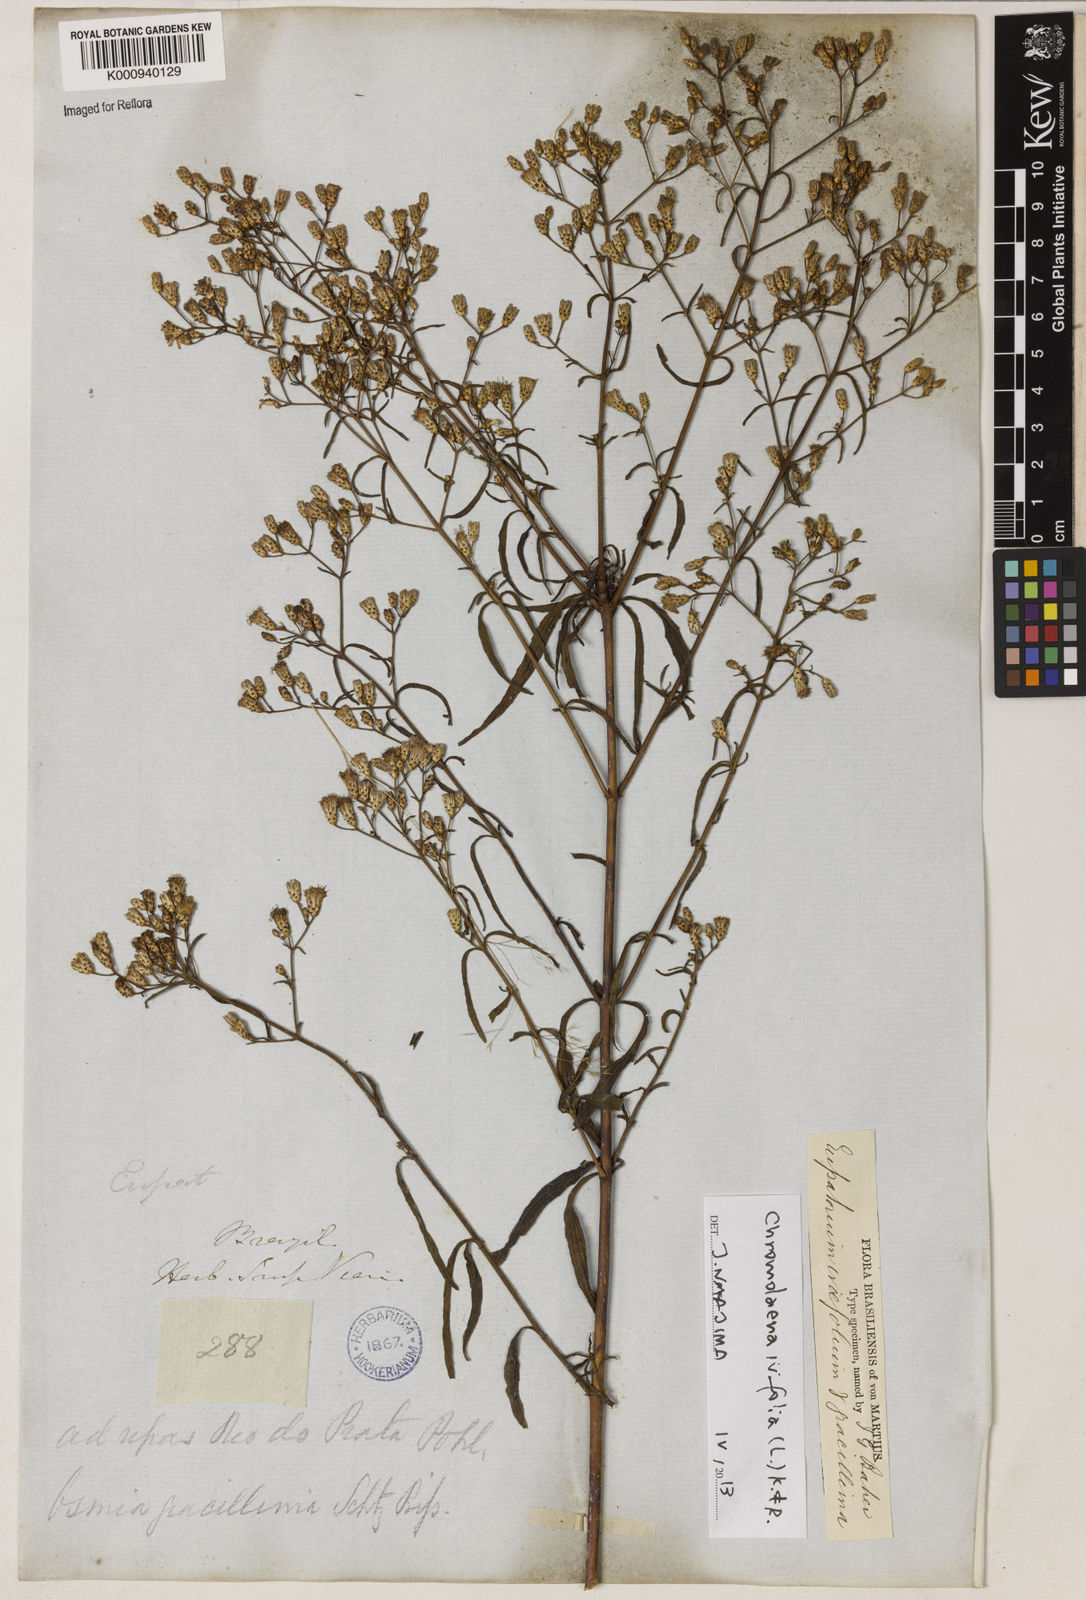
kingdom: Plantae
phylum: Tracheophyta
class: Magnoliopsida
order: Asterales
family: Asteraceae
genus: Chromolaena
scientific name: Chromolaena ivifolia
